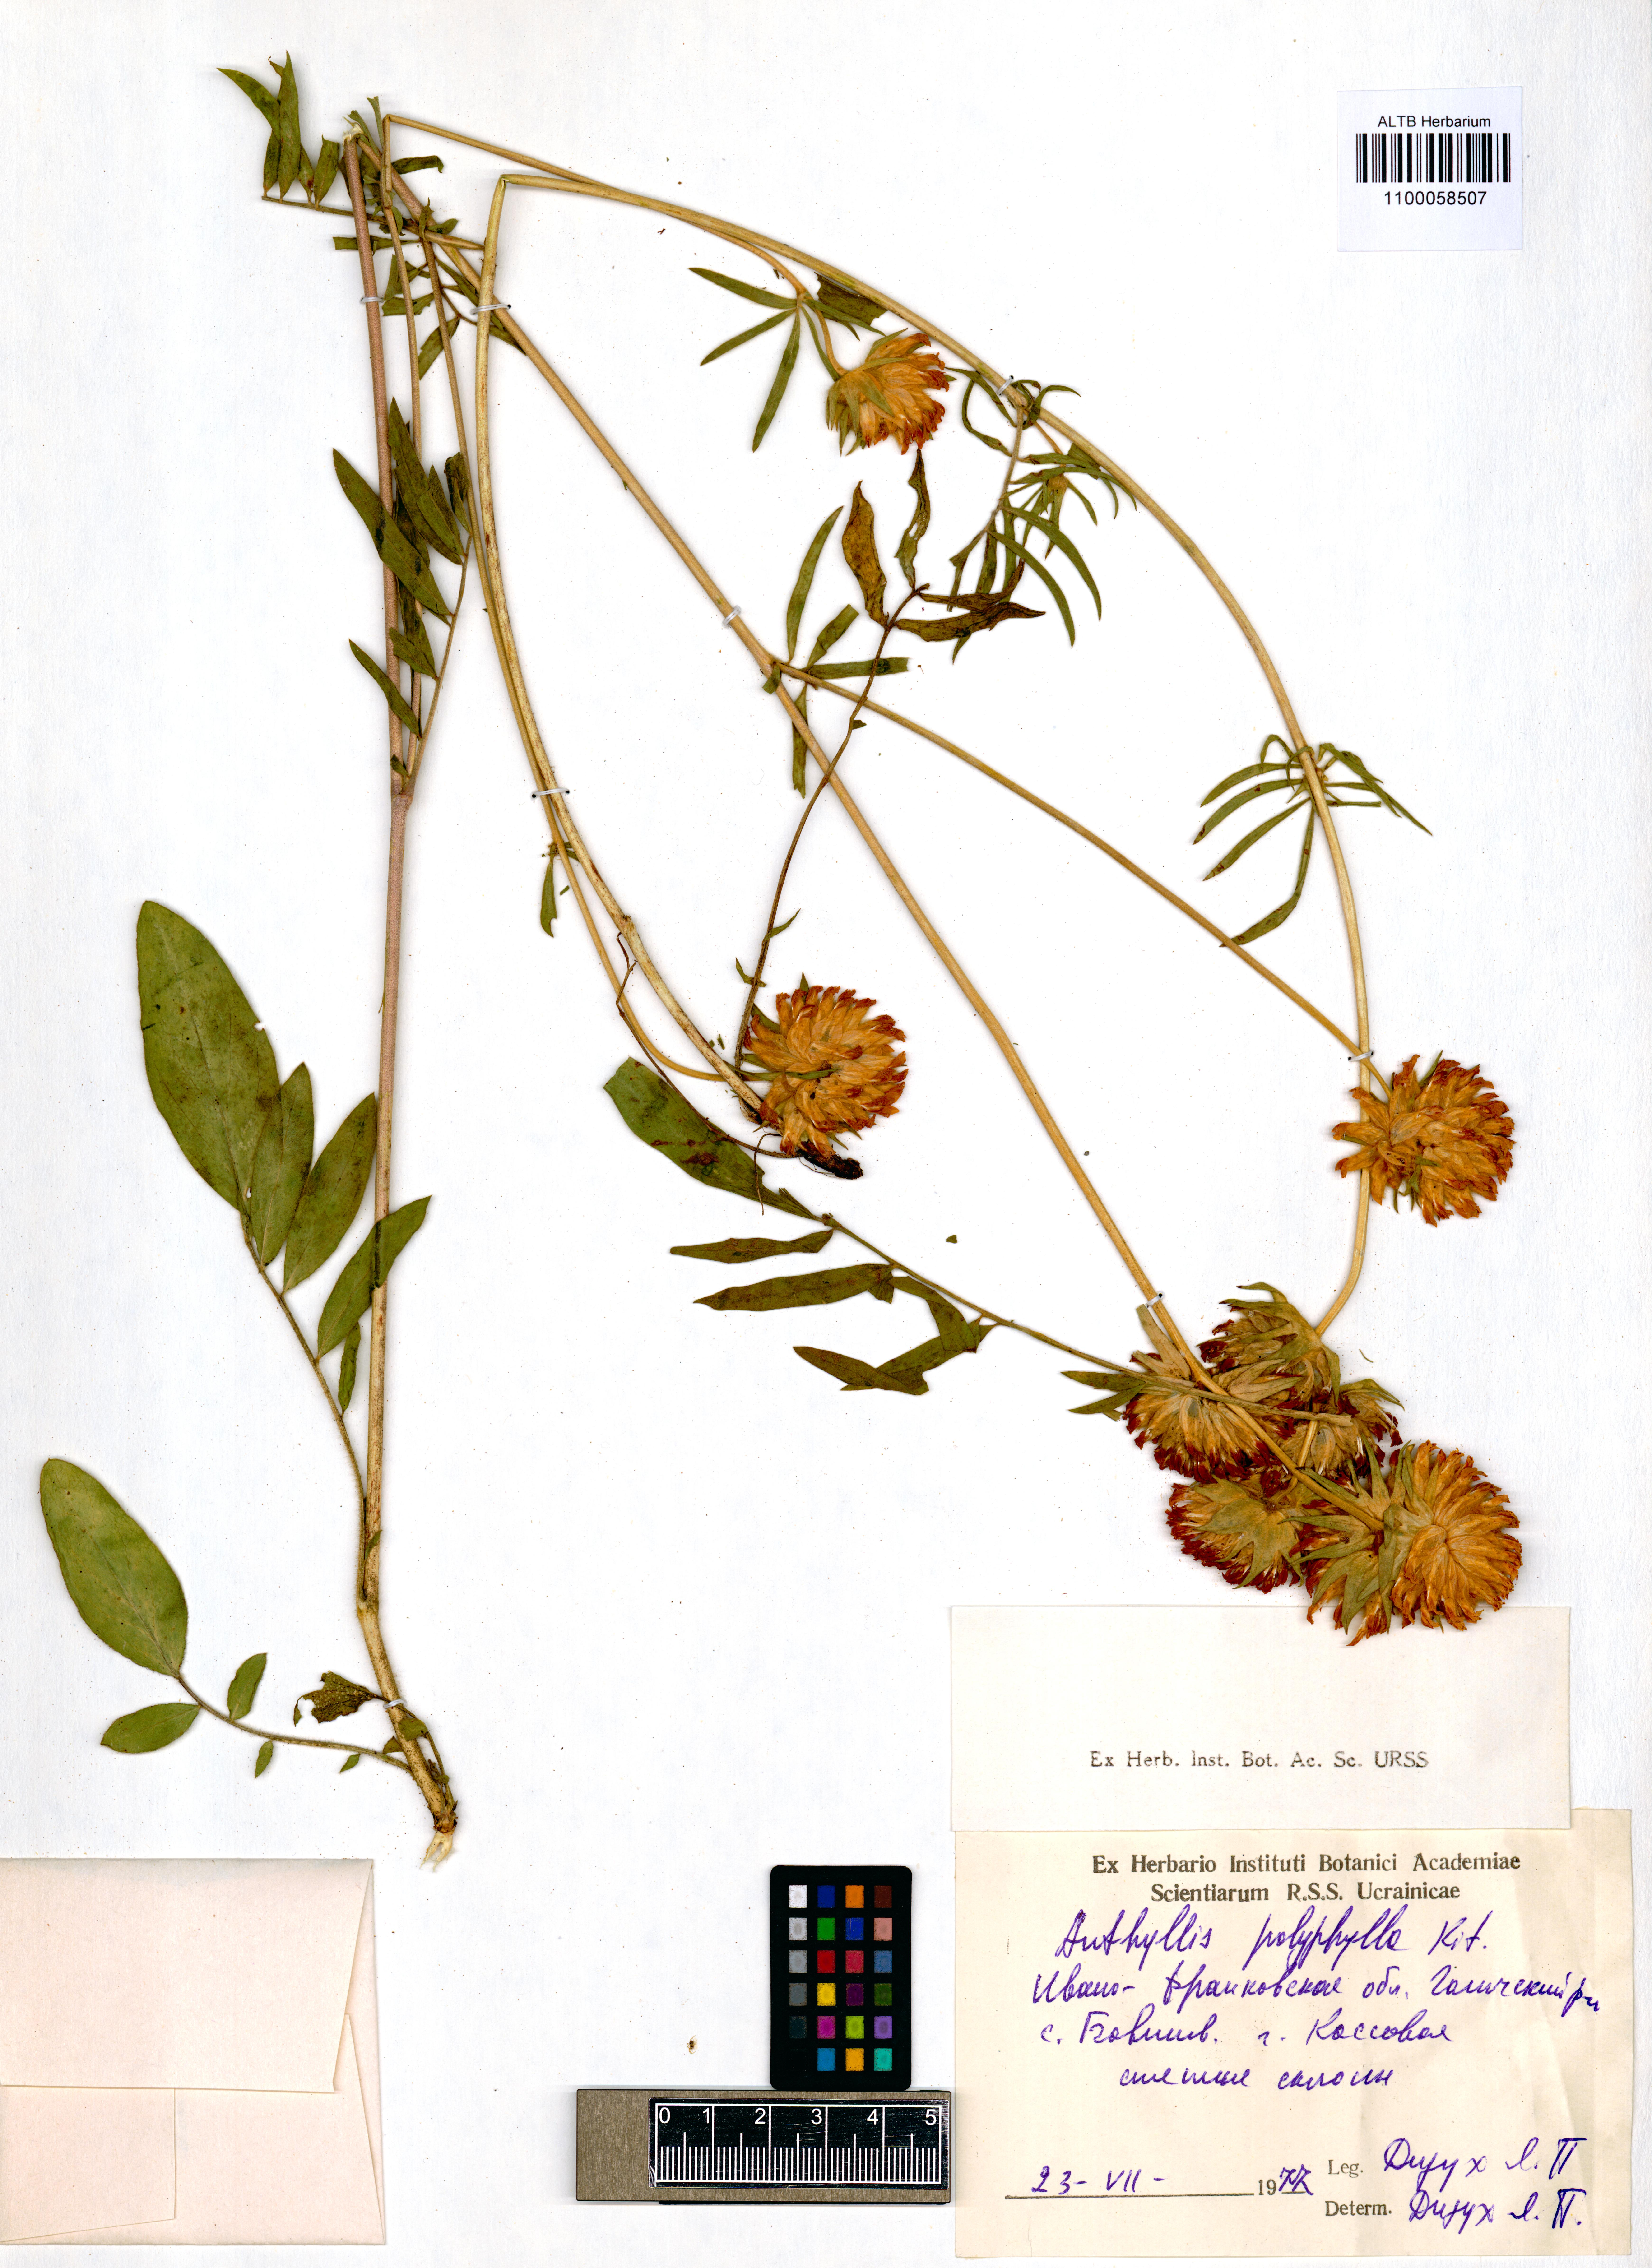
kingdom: Plantae
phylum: Tracheophyta
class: Magnoliopsida
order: Fabales
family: Fabaceae
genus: Anthyllis
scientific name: Anthyllis vulneraria
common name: Kidney vetch
